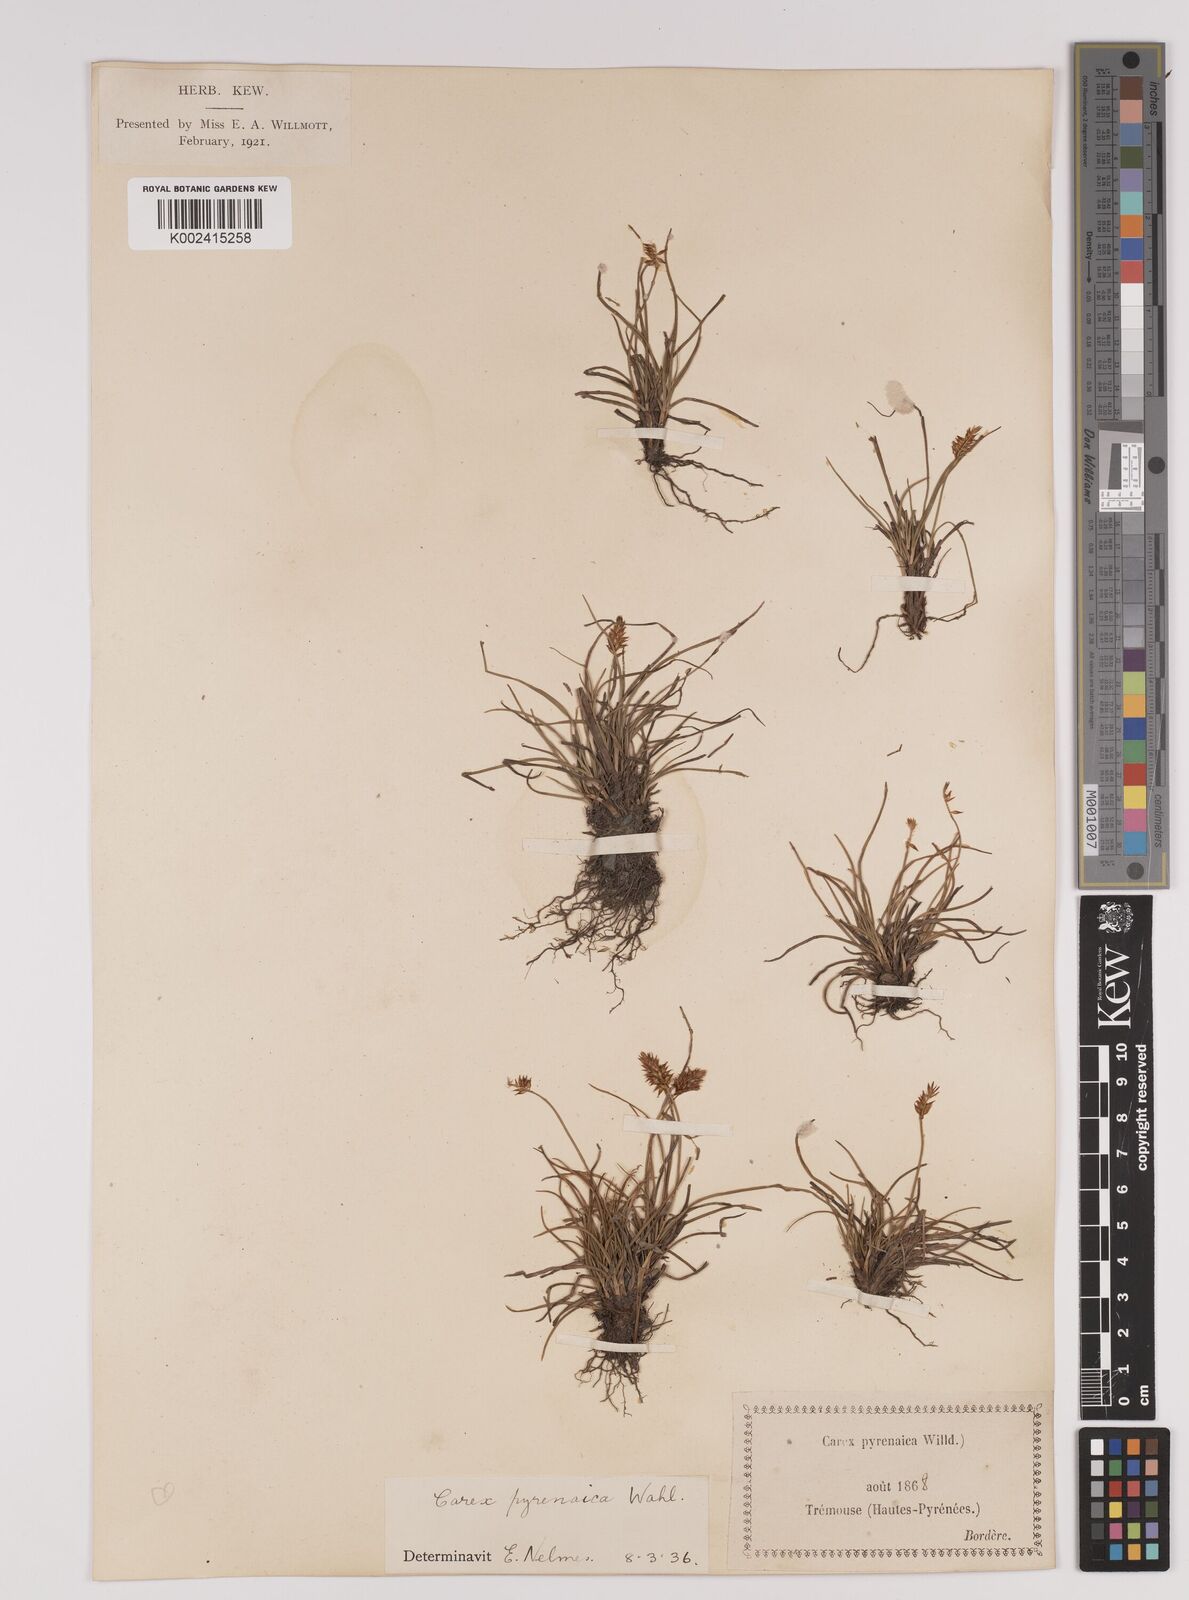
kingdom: Plantae
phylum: Tracheophyta
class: Liliopsida
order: Poales
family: Cyperaceae
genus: Carex
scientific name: Carex acicularis
